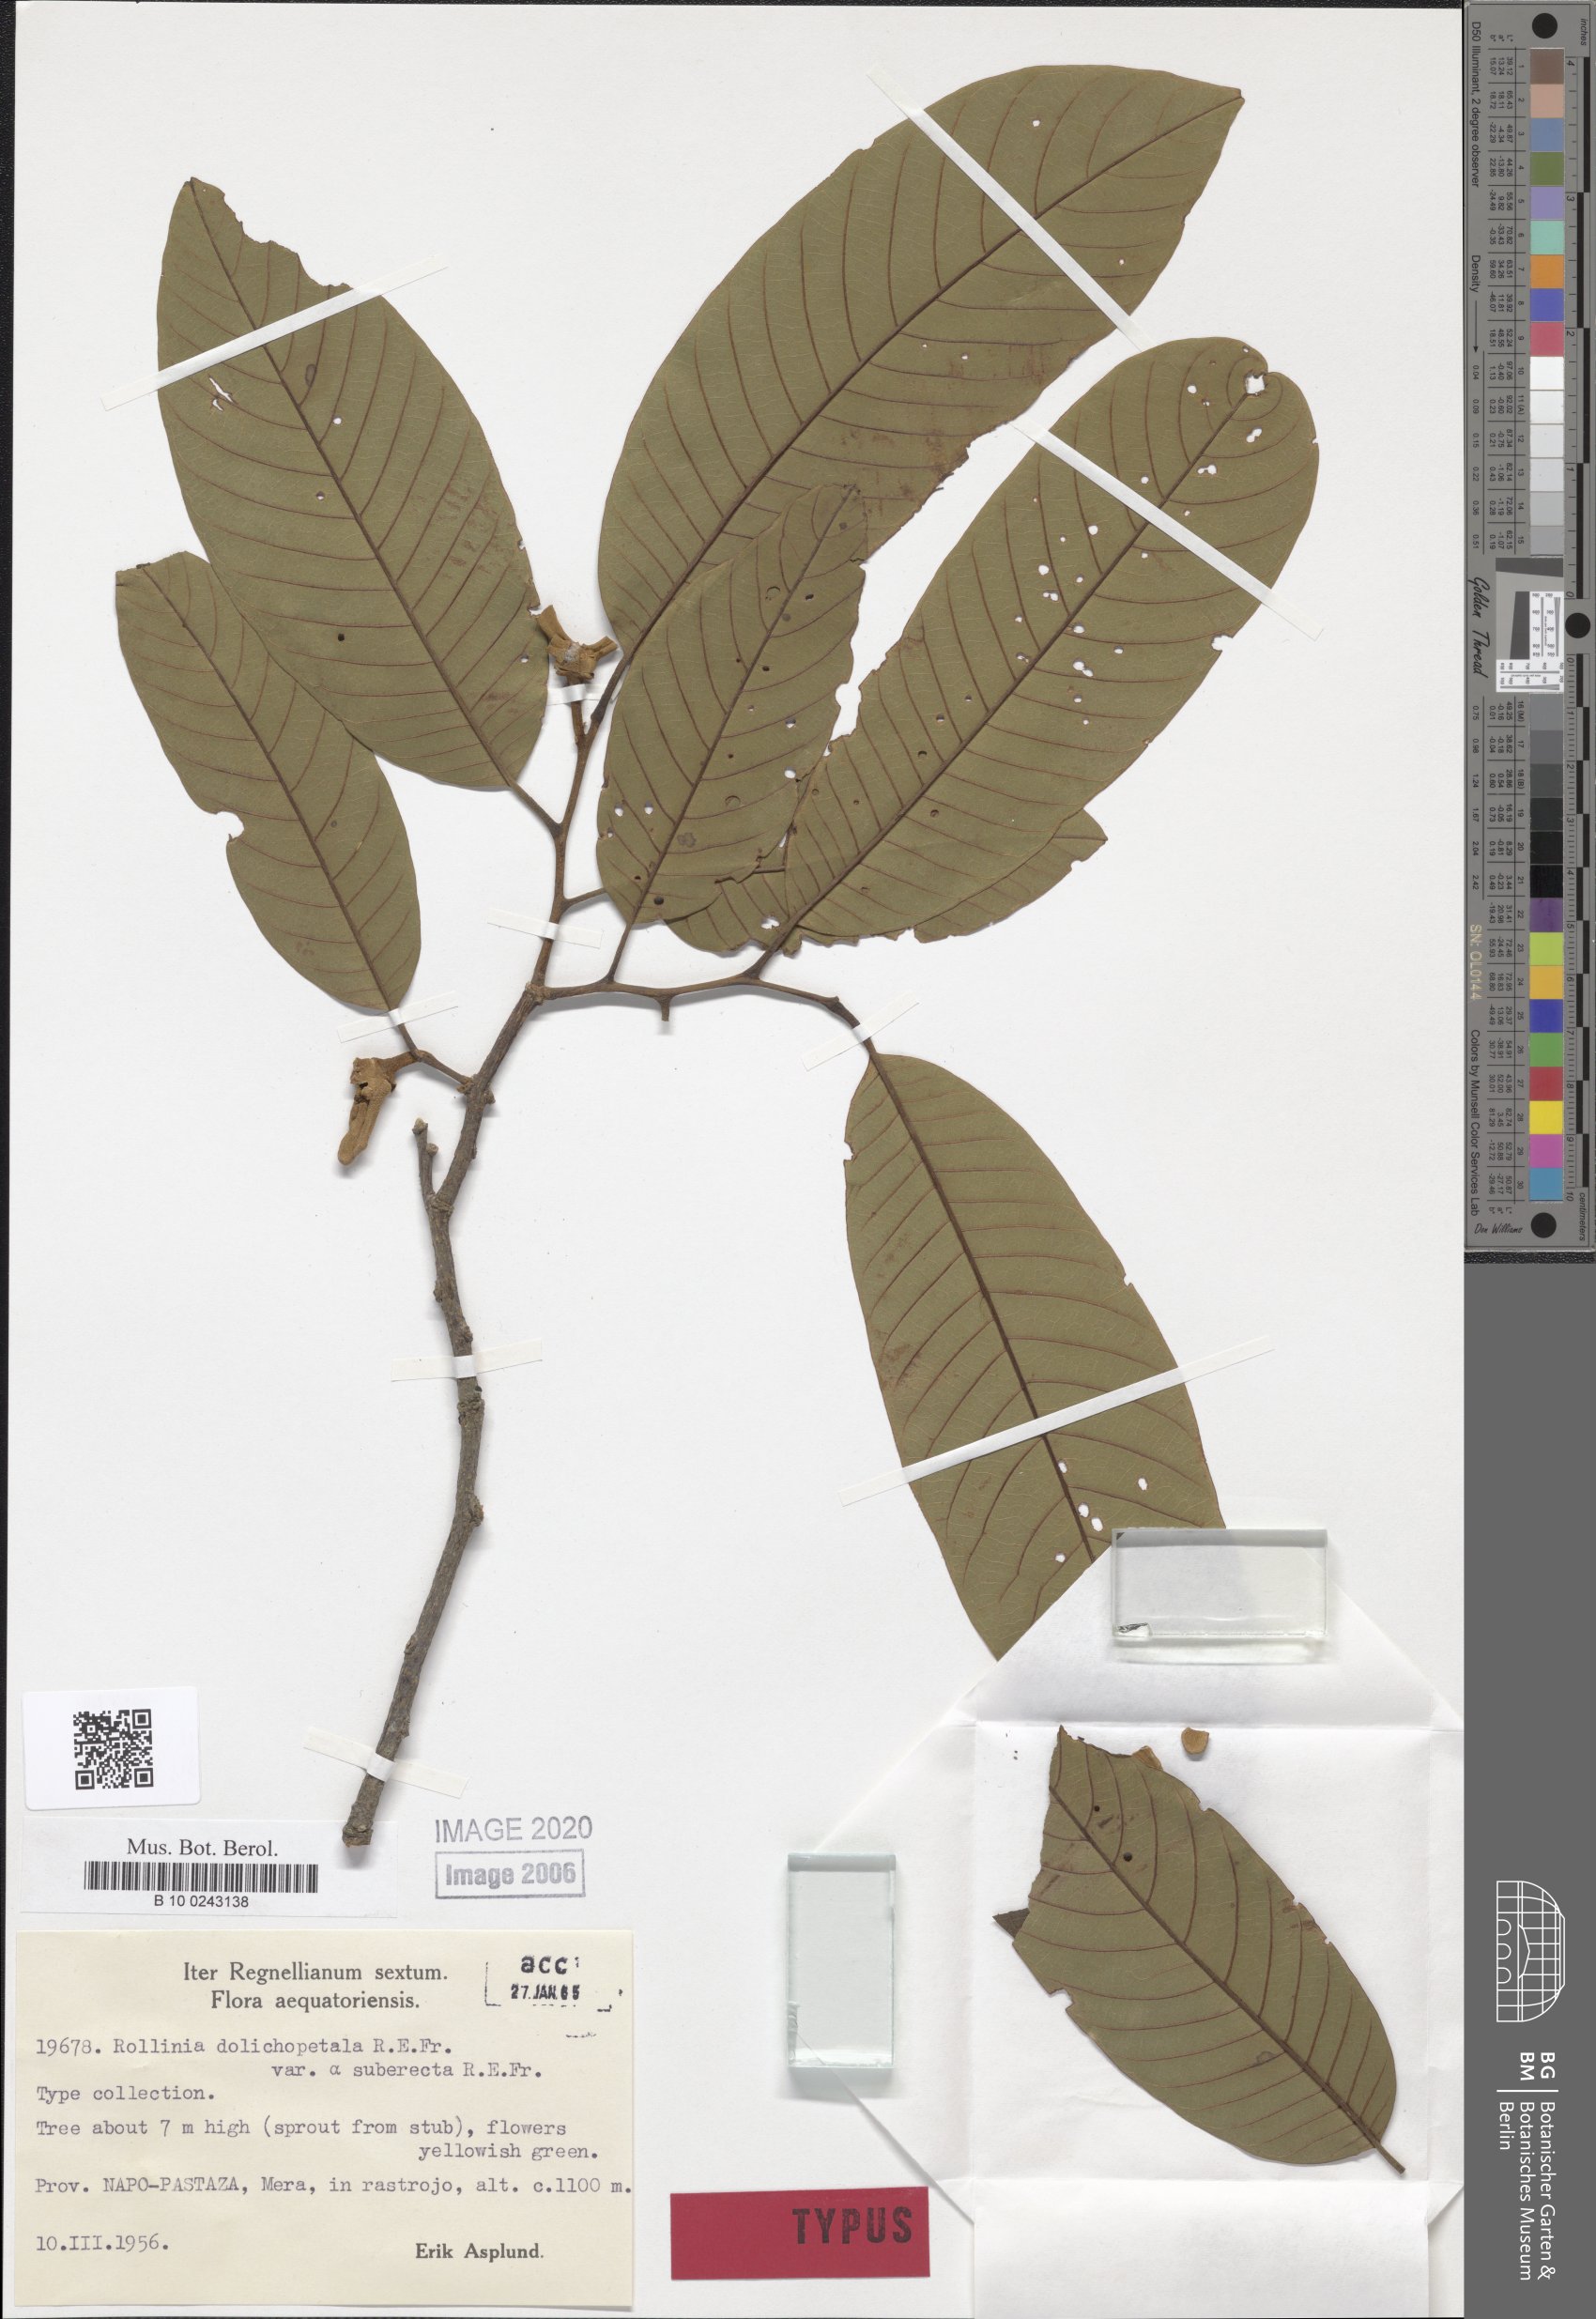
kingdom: Plantae
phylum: Tracheophyta
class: Magnoliopsida
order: Magnoliales
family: Annonaceae
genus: Annona
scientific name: Annona dolichopetala
